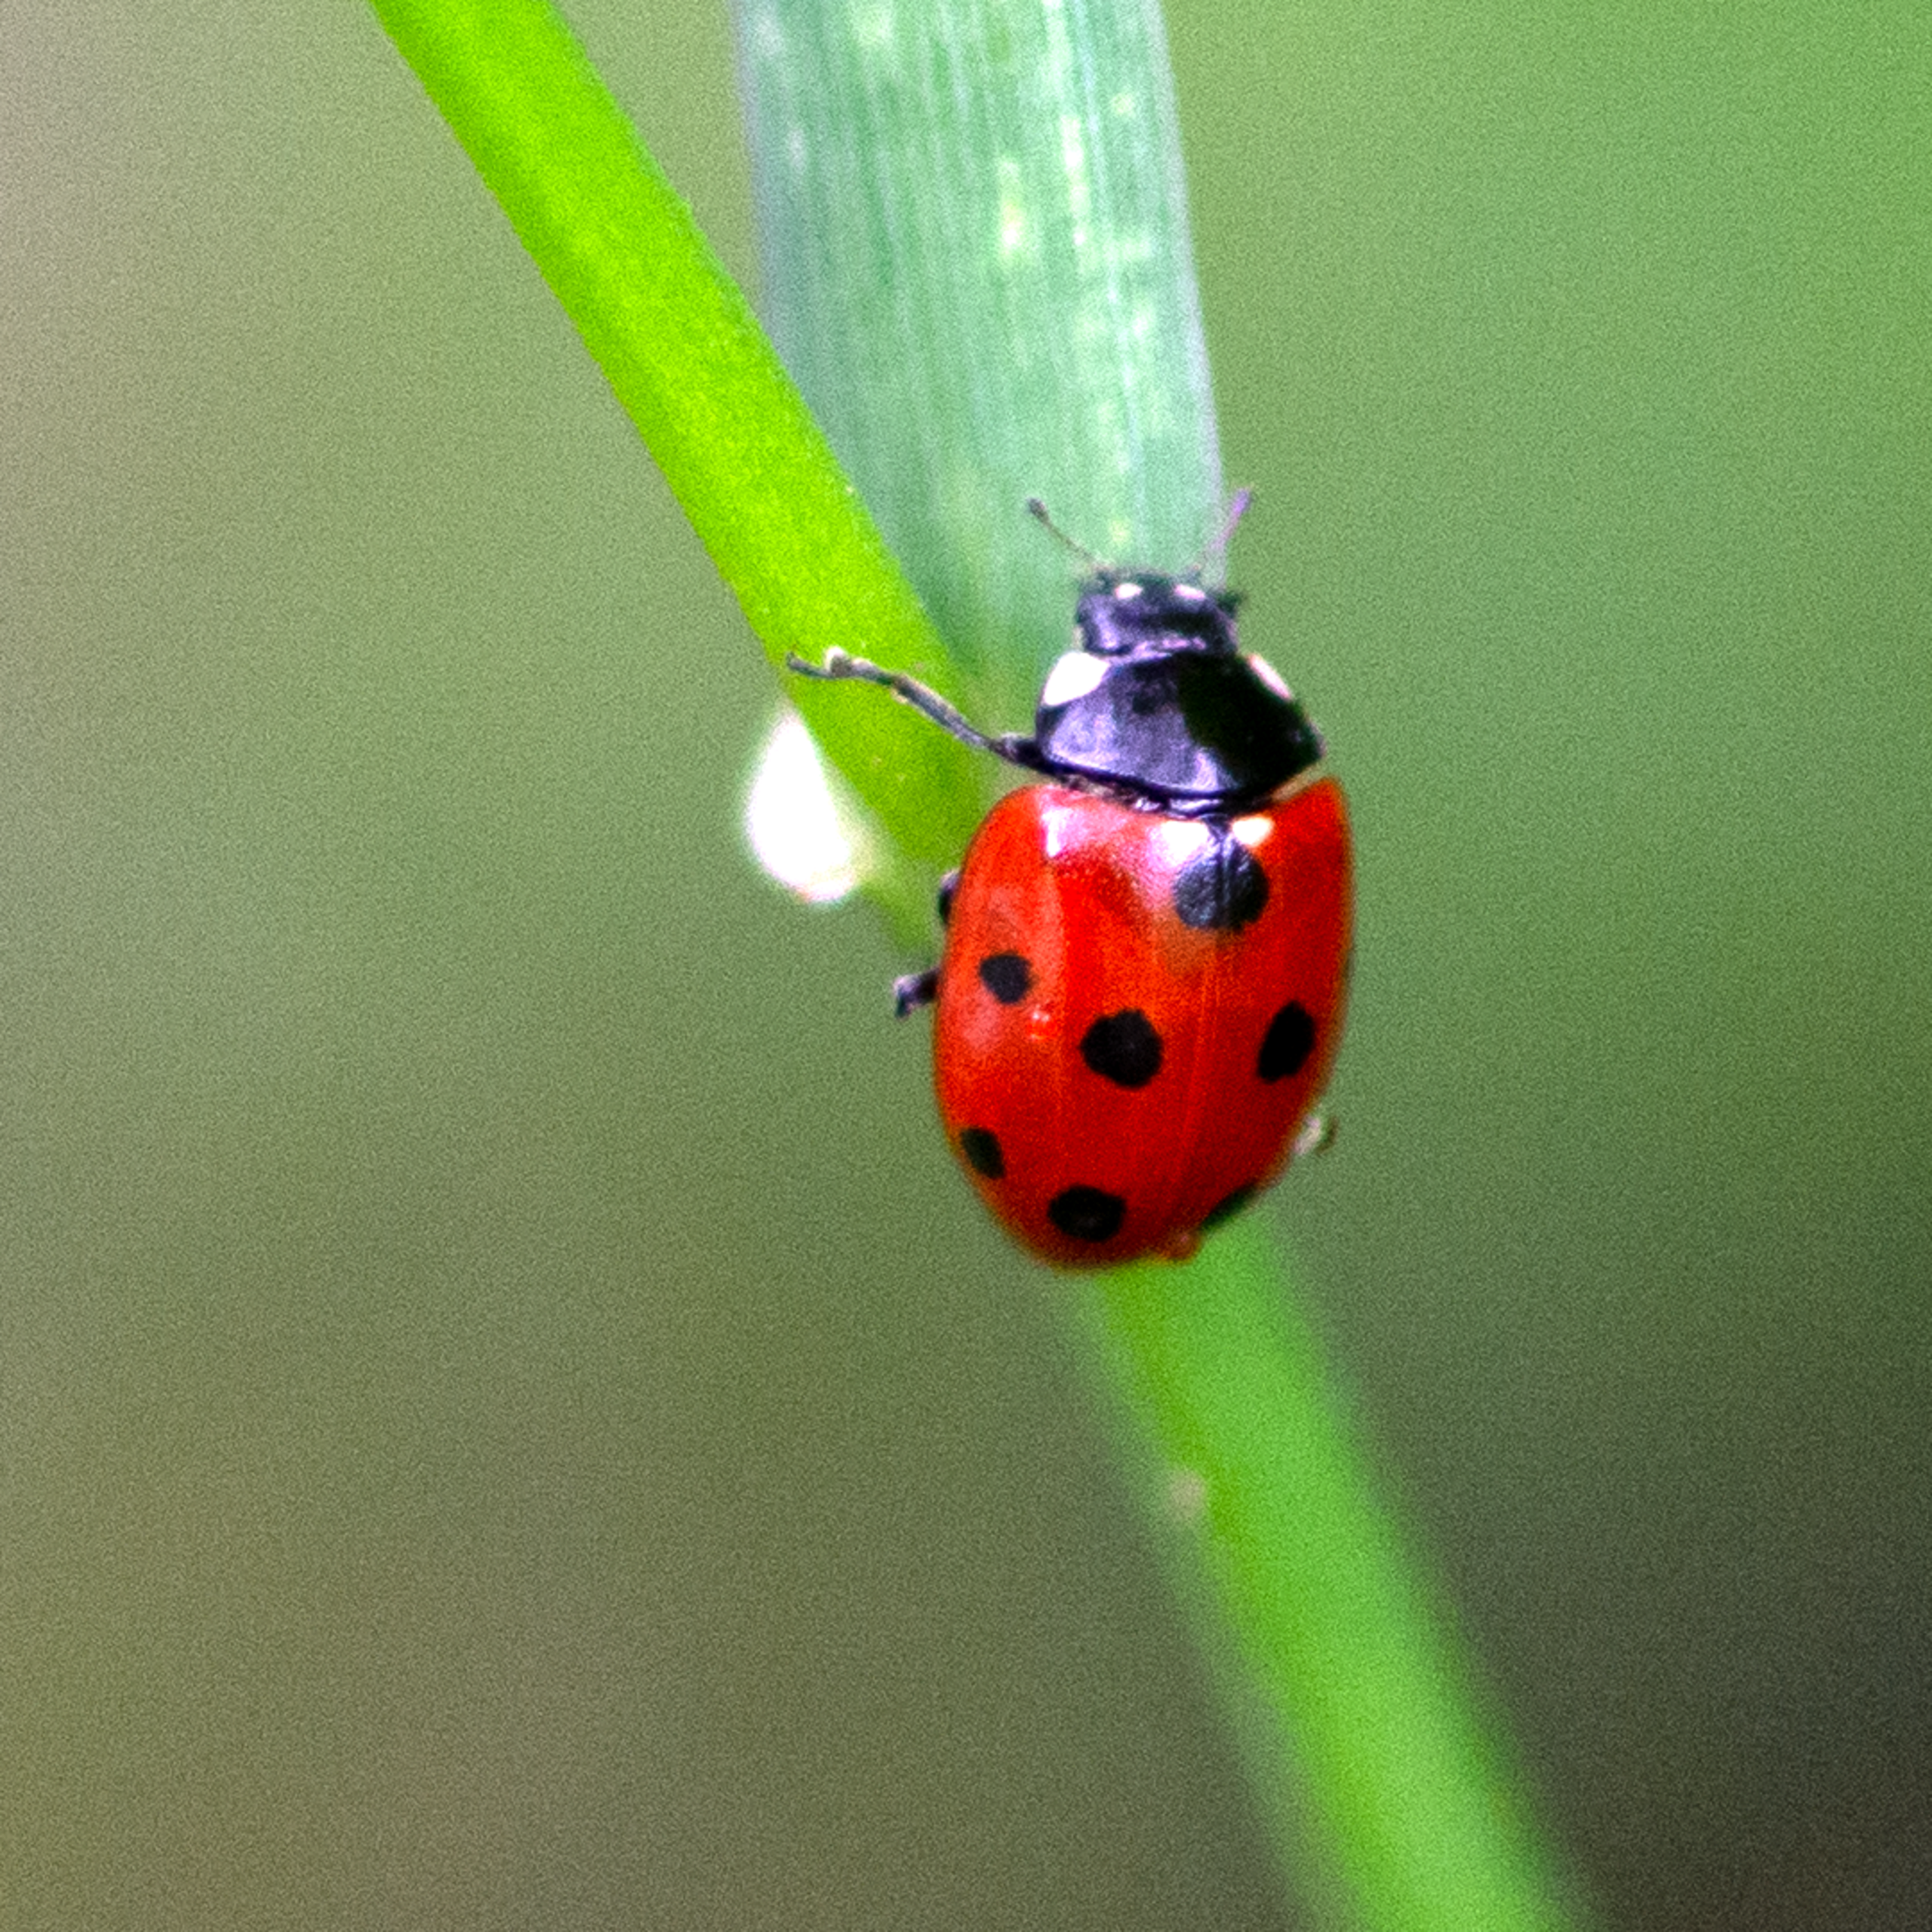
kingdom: Animalia
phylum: Arthropoda
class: Insecta
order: Coleoptera
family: Coccinellidae
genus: Coccinella
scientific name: Coccinella undecimpunctata
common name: Elleveplettet mariehøne
